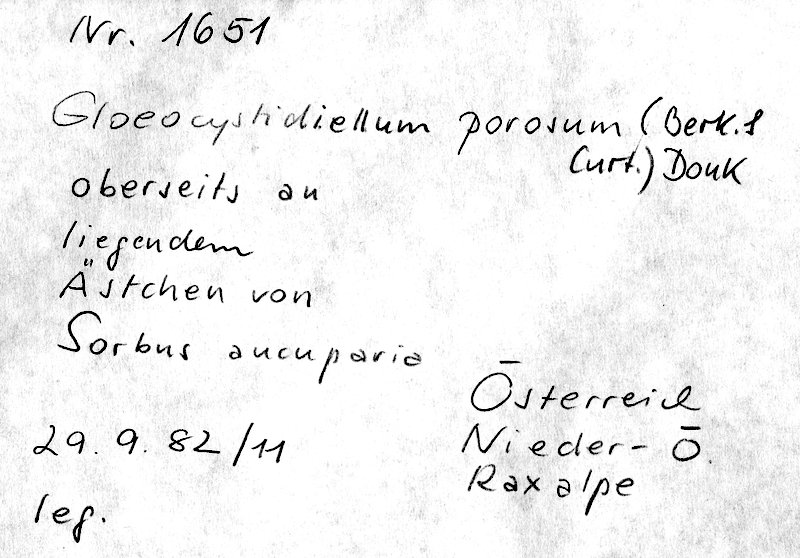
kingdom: Fungi
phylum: Basidiomycota
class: Agaricomycetes
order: Russulales
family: Stereaceae
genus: Gloeocystidiellum
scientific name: Gloeocystidiellum porosum
